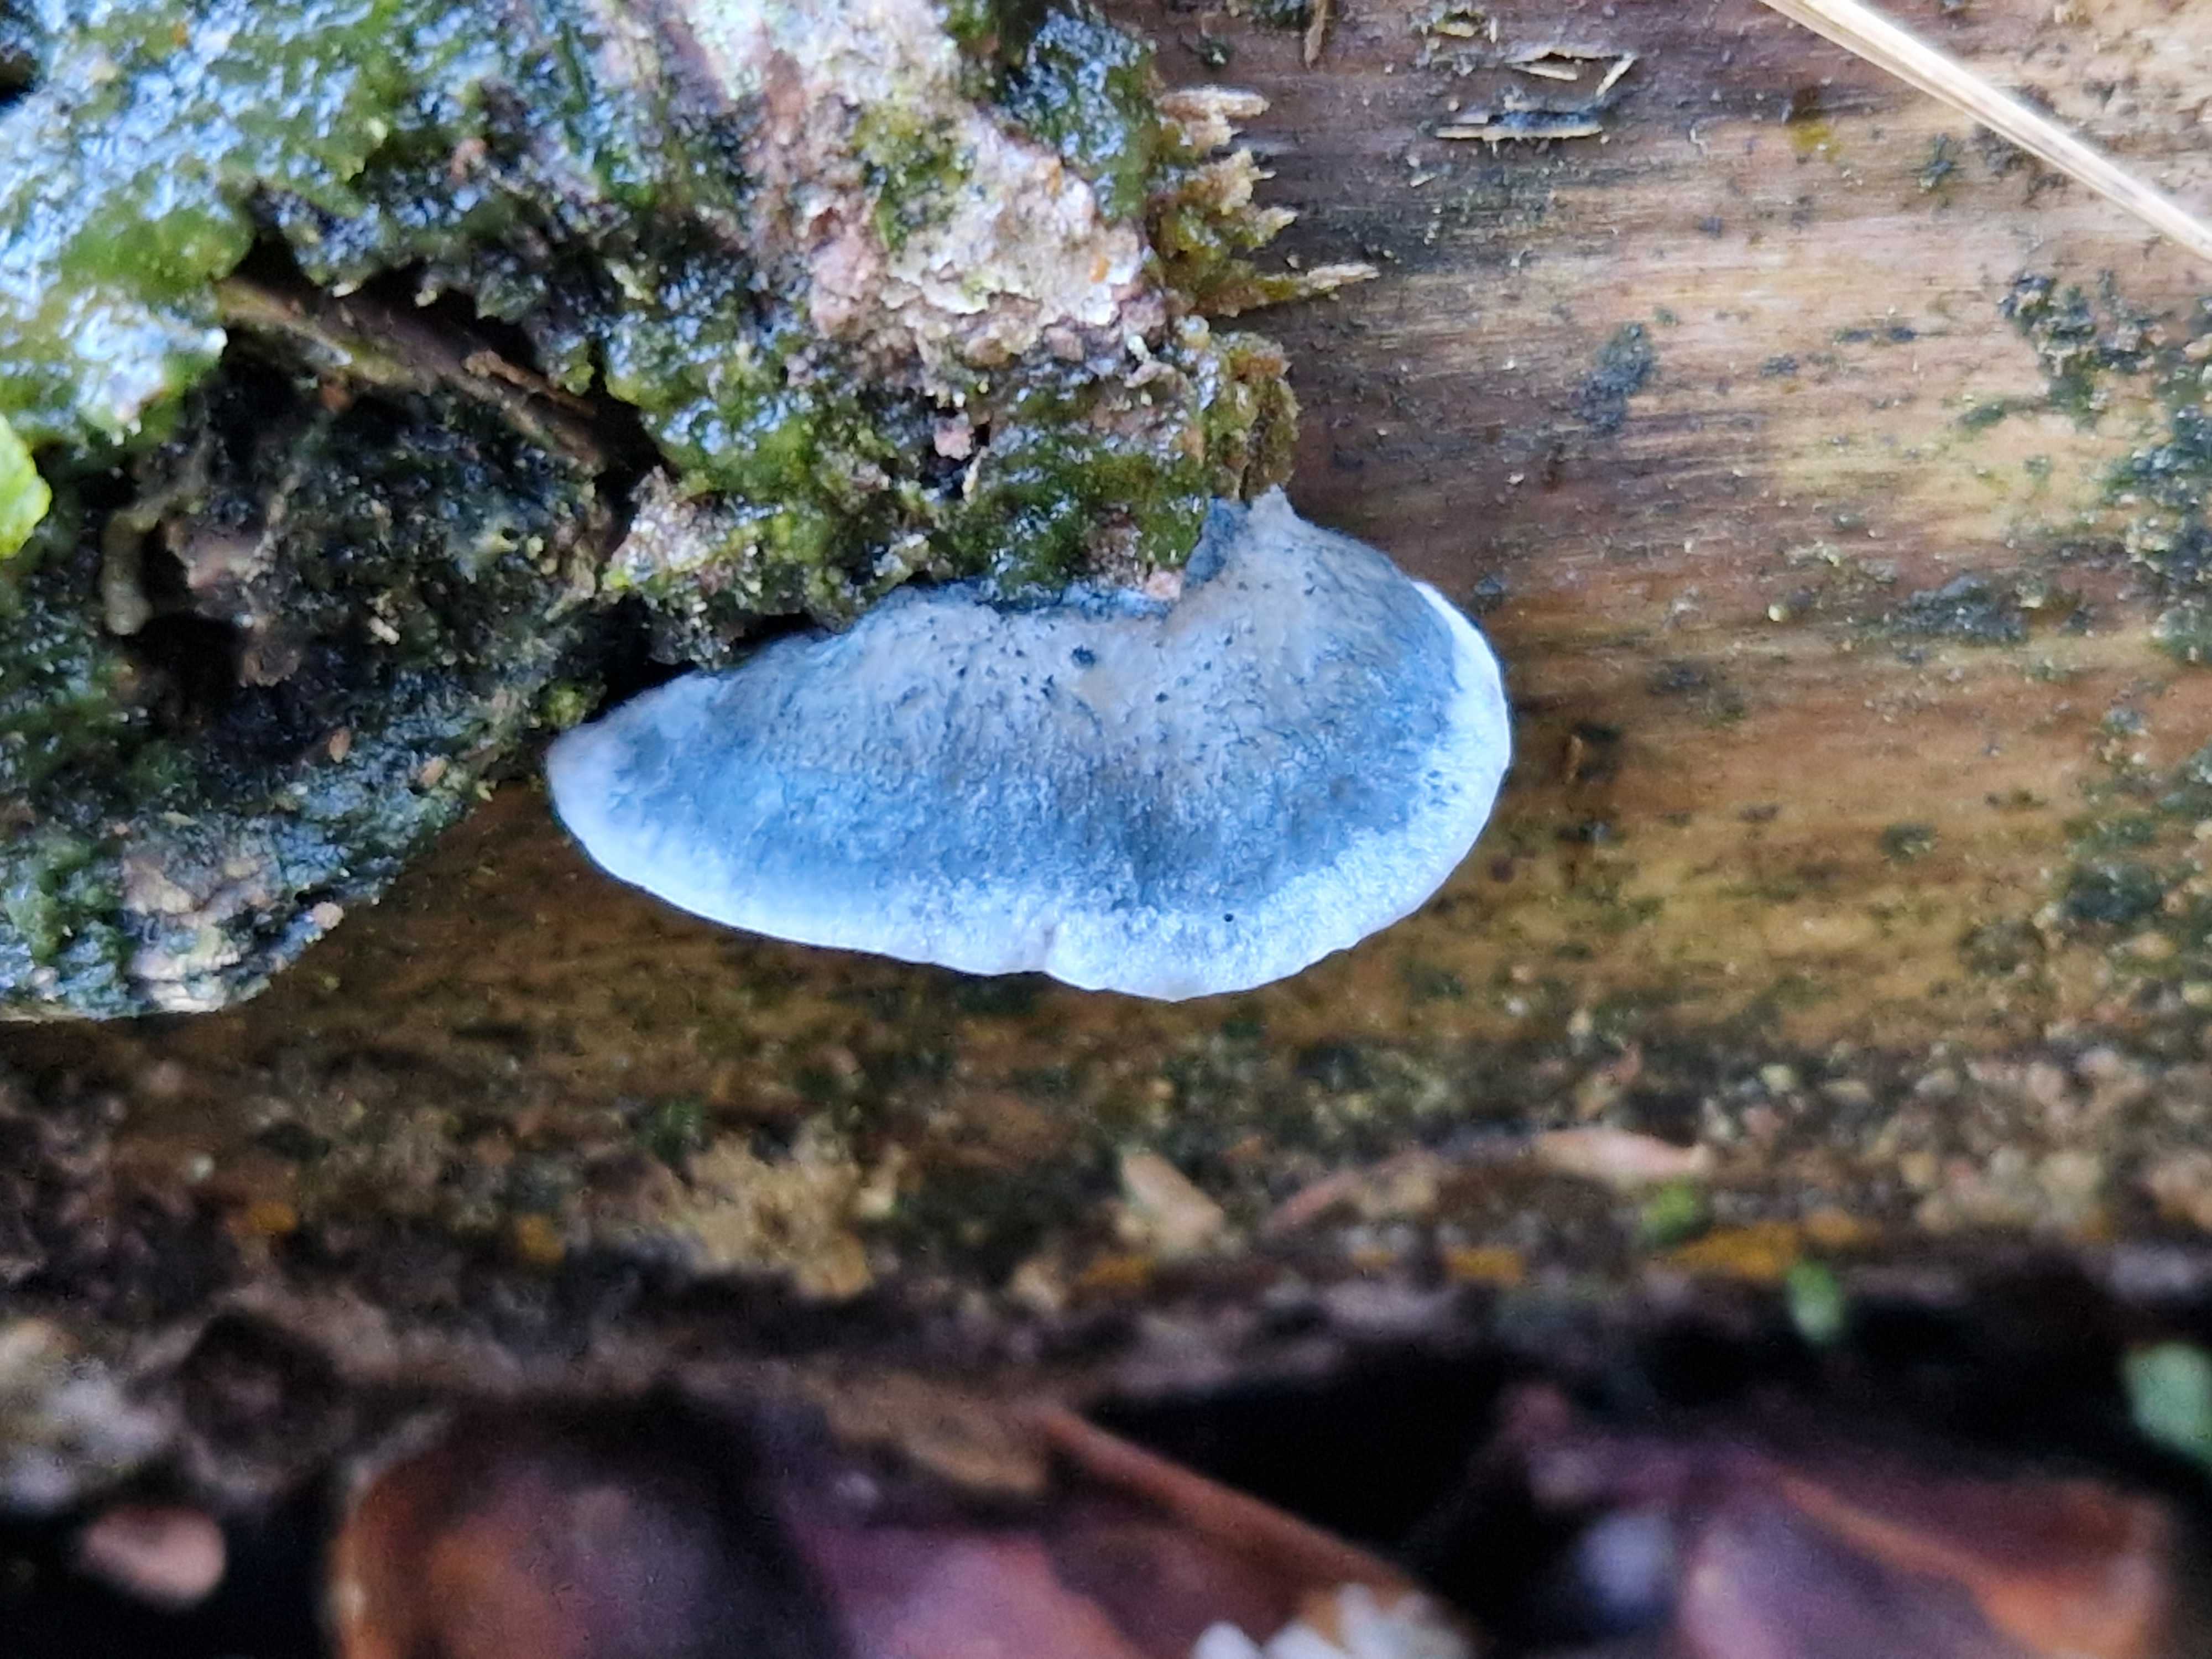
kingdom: Fungi
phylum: Basidiomycota
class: Agaricomycetes
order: Polyporales
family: Polyporaceae
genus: Cyanosporus
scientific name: Cyanosporus caesius
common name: blålig kødporesvamp
